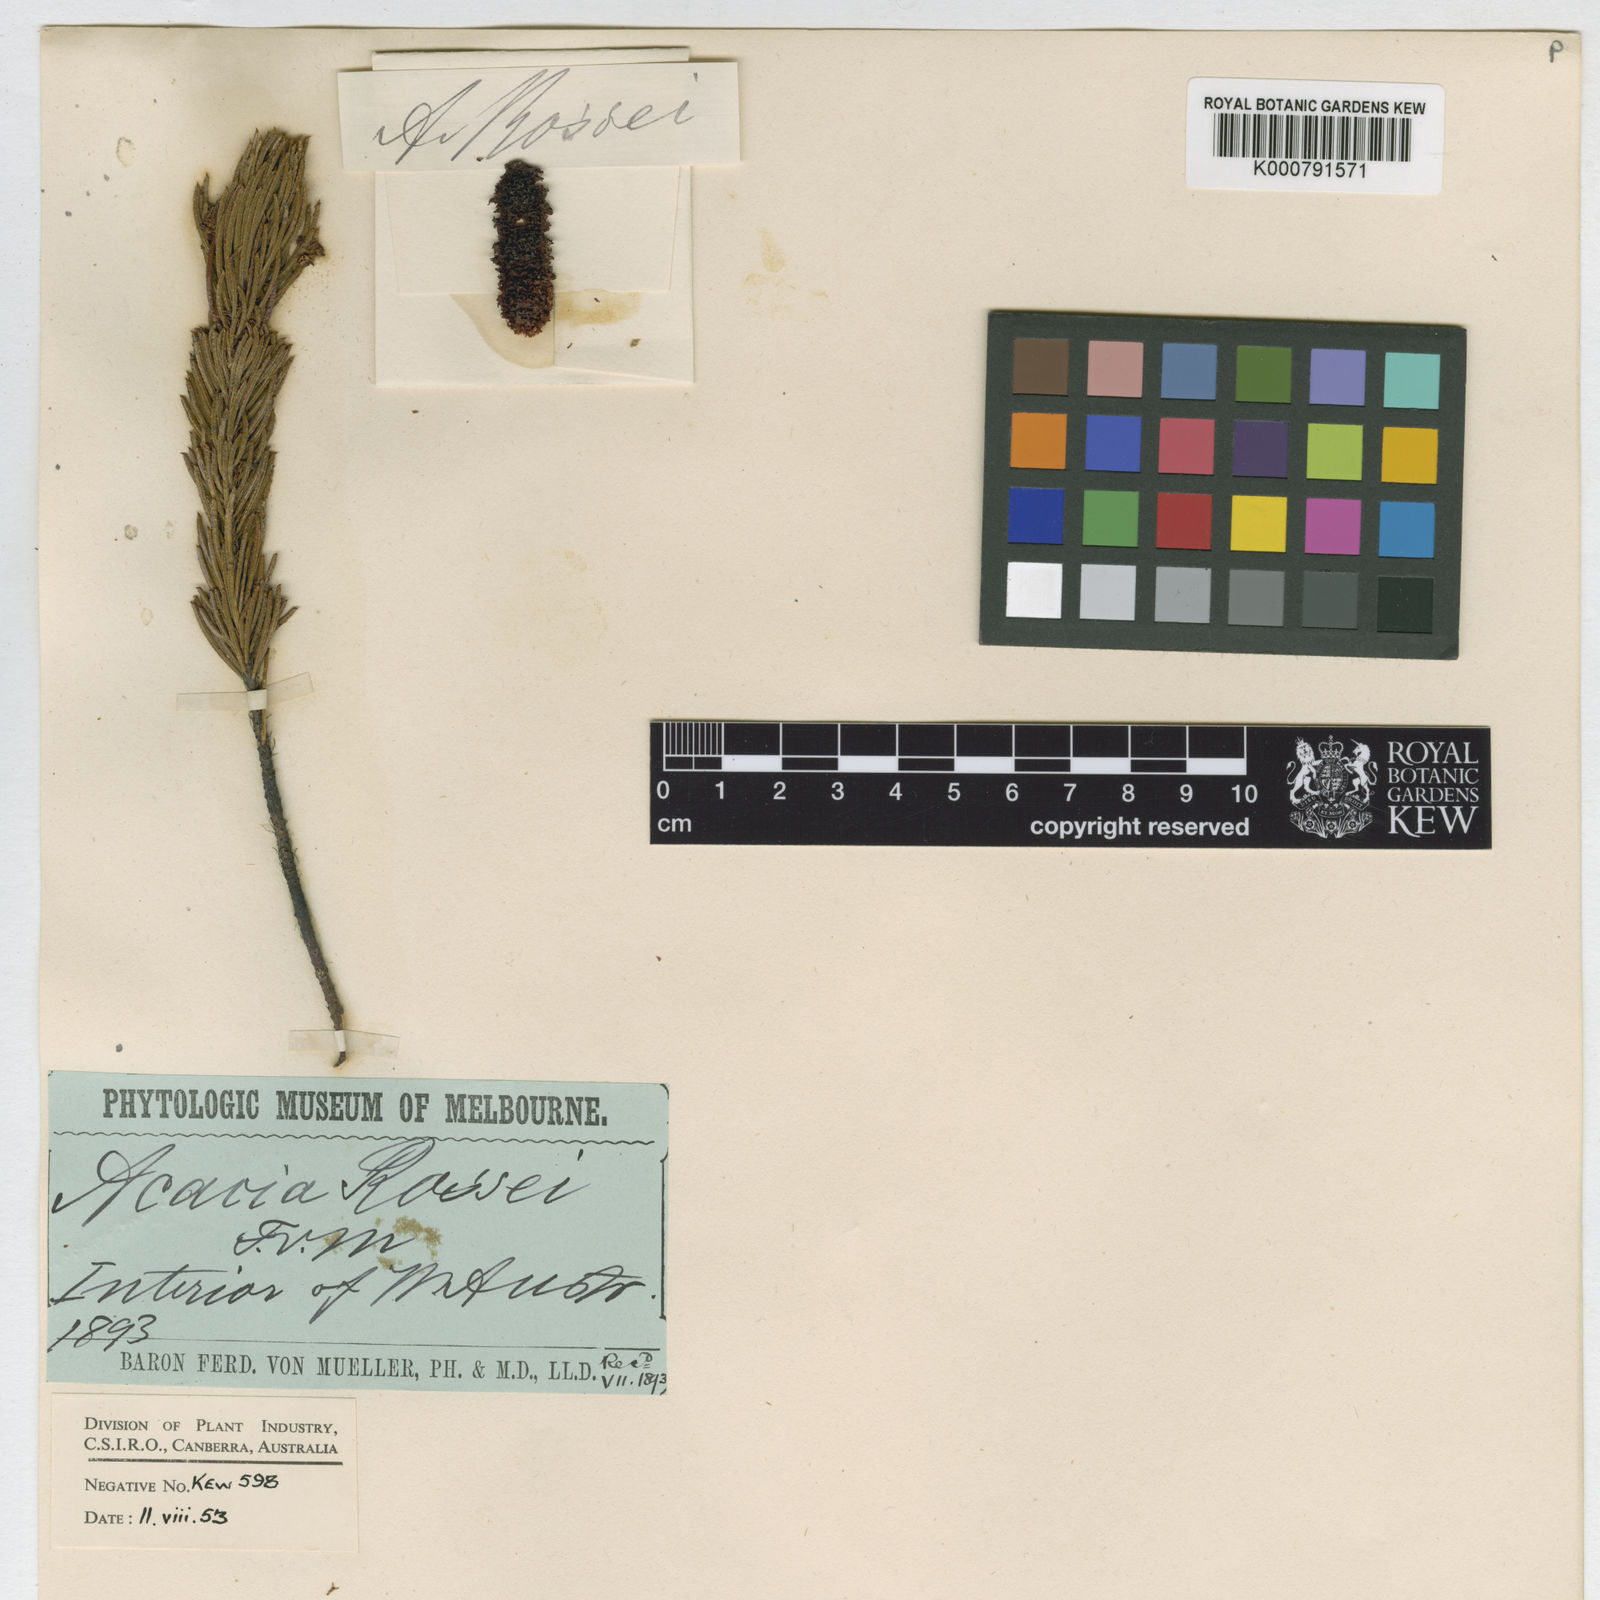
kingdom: Plantae
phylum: Tracheophyta
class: Magnoliopsida
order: Fabales
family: Fabaceae
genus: Acacia
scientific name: Acacia rossei
